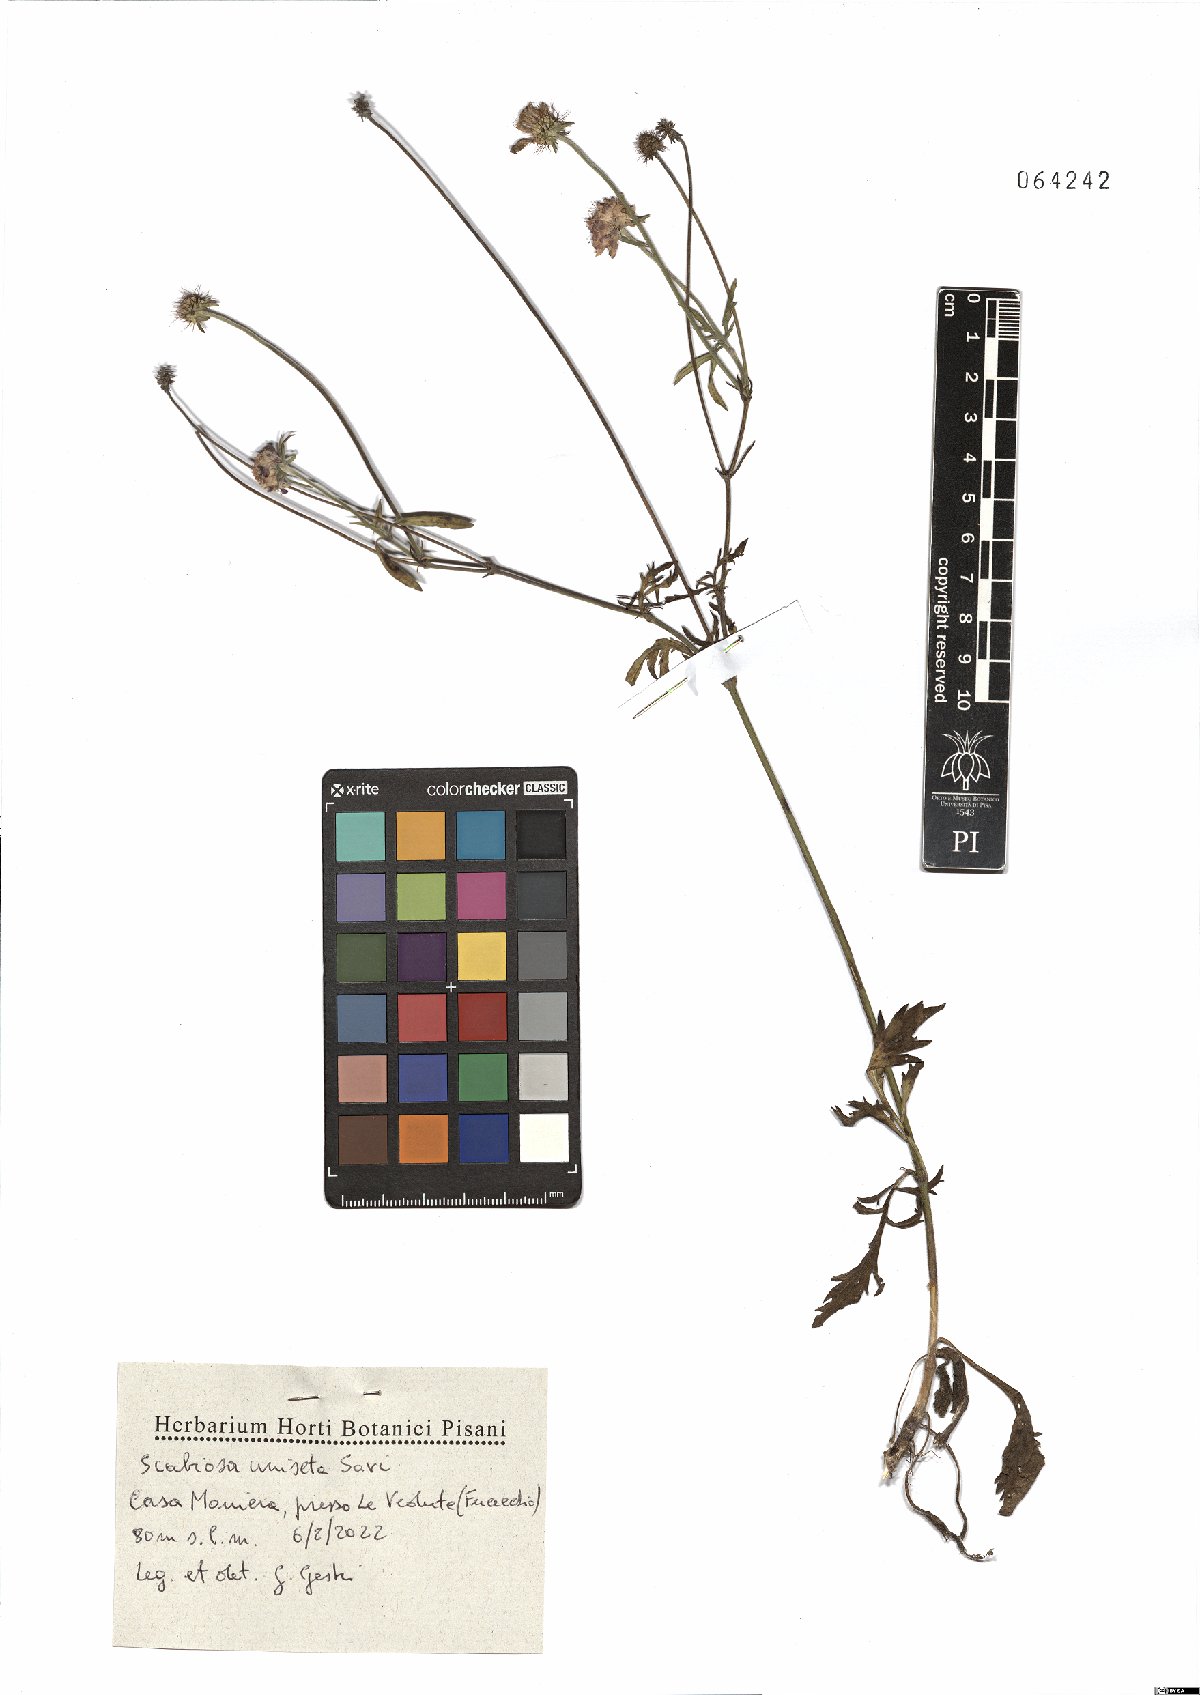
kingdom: Plantae
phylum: Tracheophyta
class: Magnoliopsida
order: Dipsacales
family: Caprifoliaceae
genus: Scabiosa
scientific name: Scabiosa columbaria
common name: Small scabious
